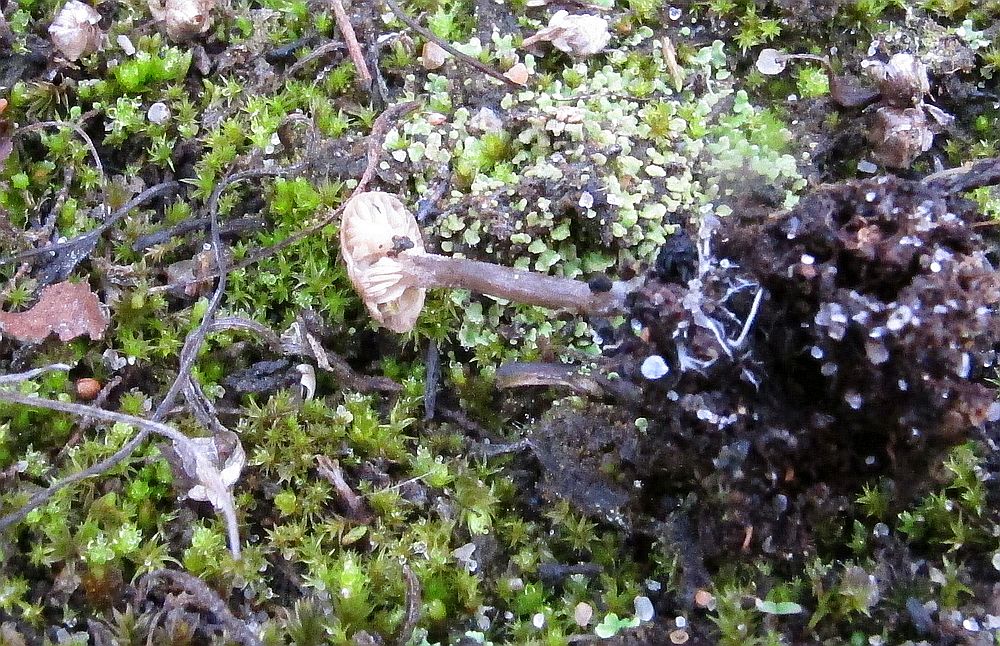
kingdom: Fungi
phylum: Basidiomycota
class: Agaricomycetes
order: Agaricales
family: Entolomataceae
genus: Clitopilus
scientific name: Clitopilus caelatus
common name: gråbrun troldhat
